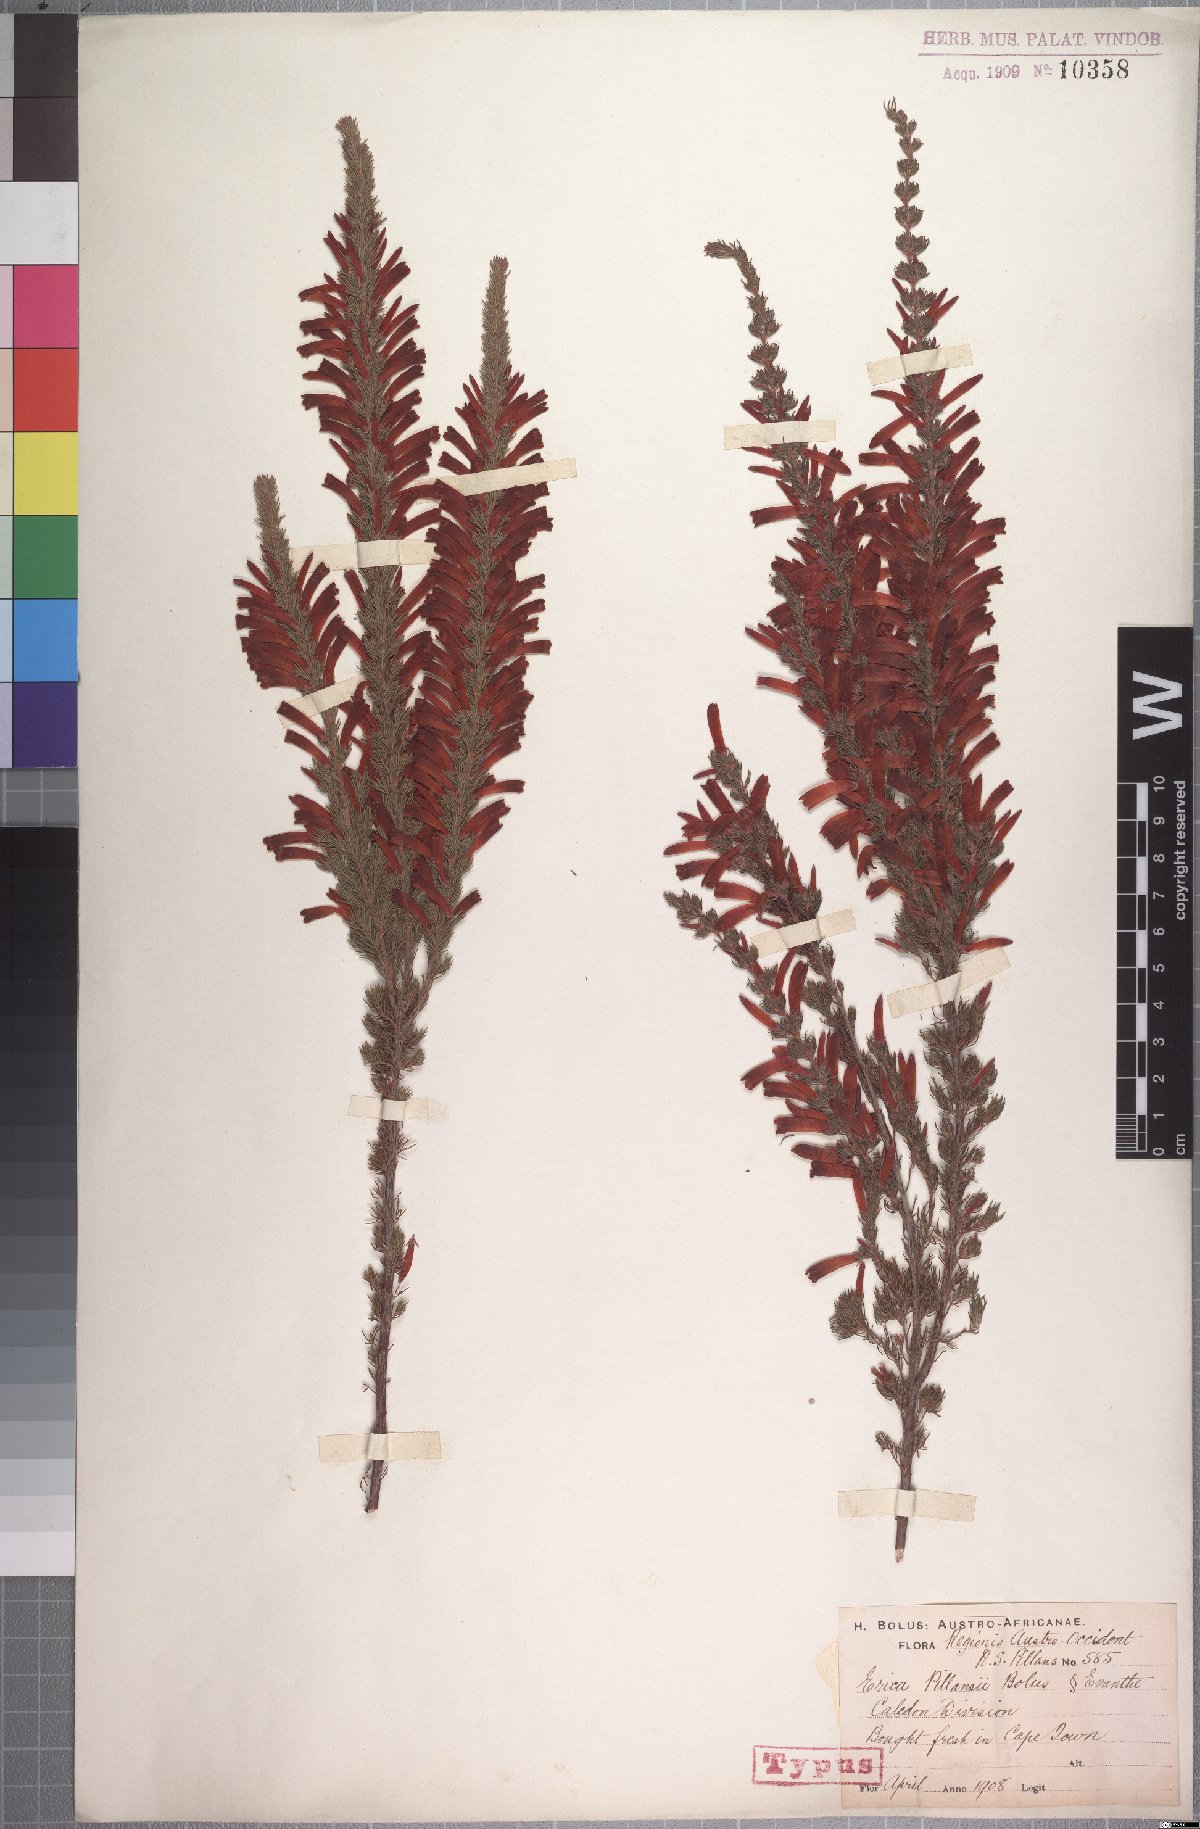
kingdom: Plantae
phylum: Tracheophyta
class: Magnoliopsida
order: Ericales
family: Ericaceae
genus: Erica
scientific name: Erica pillansii
